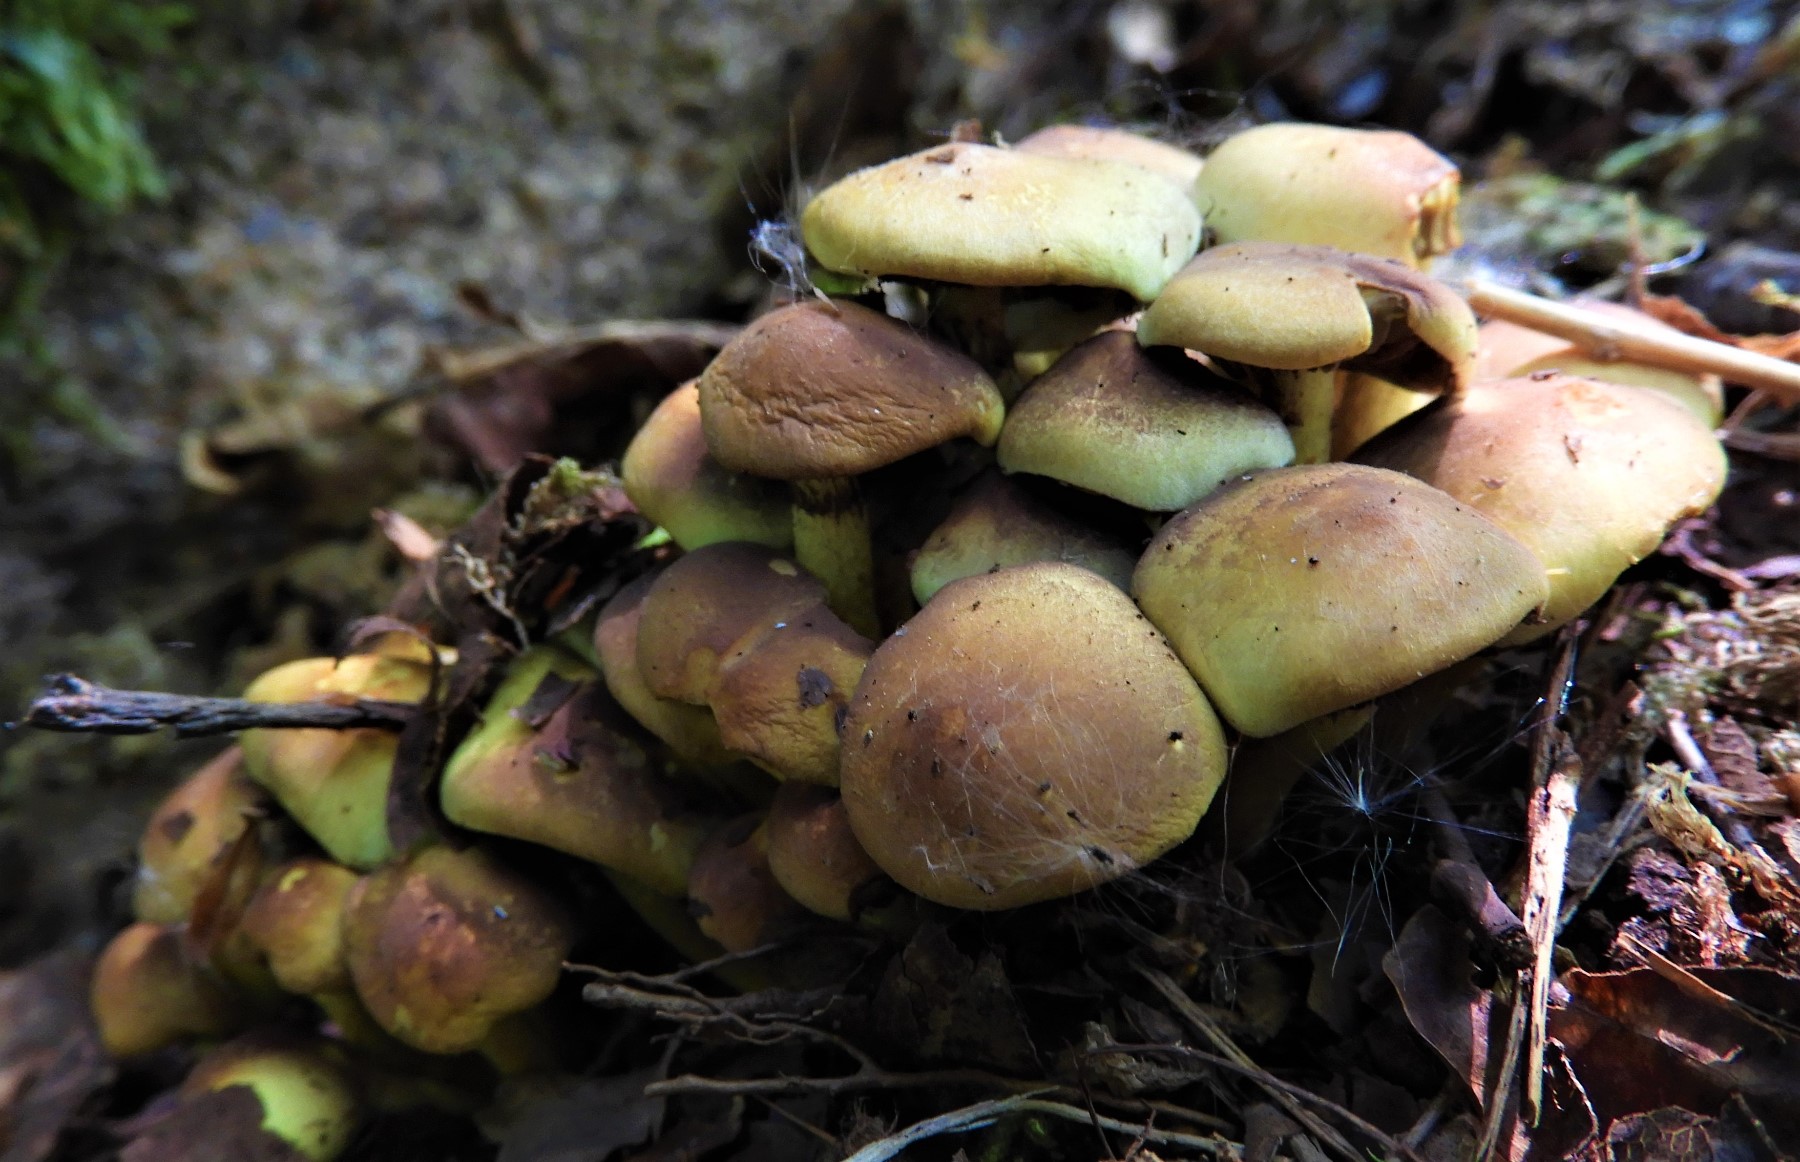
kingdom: Fungi
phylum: Basidiomycota
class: Agaricomycetes
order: Agaricales
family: Strophariaceae
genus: Hypholoma
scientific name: Hypholoma fasciculare
